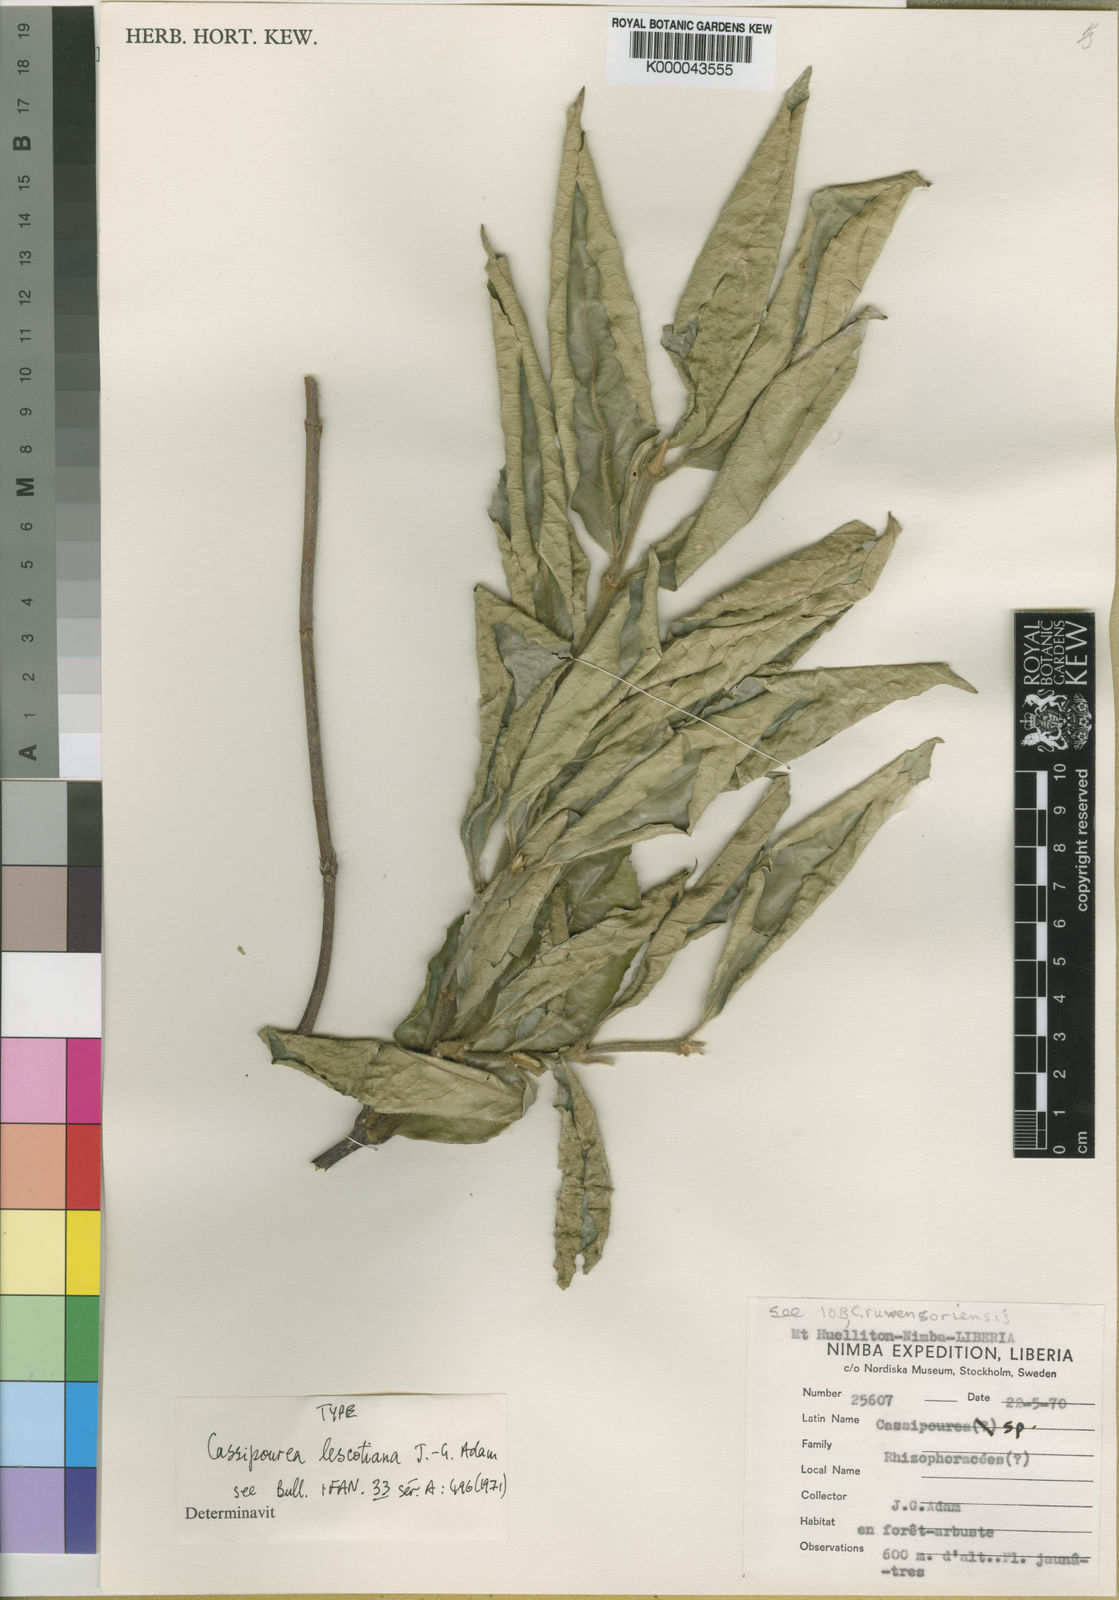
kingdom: Plantae
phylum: Tracheophyta
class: Magnoliopsida
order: Malpighiales
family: Rhizophoraceae
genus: Cassipourea
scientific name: Cassipourea lescotiana
